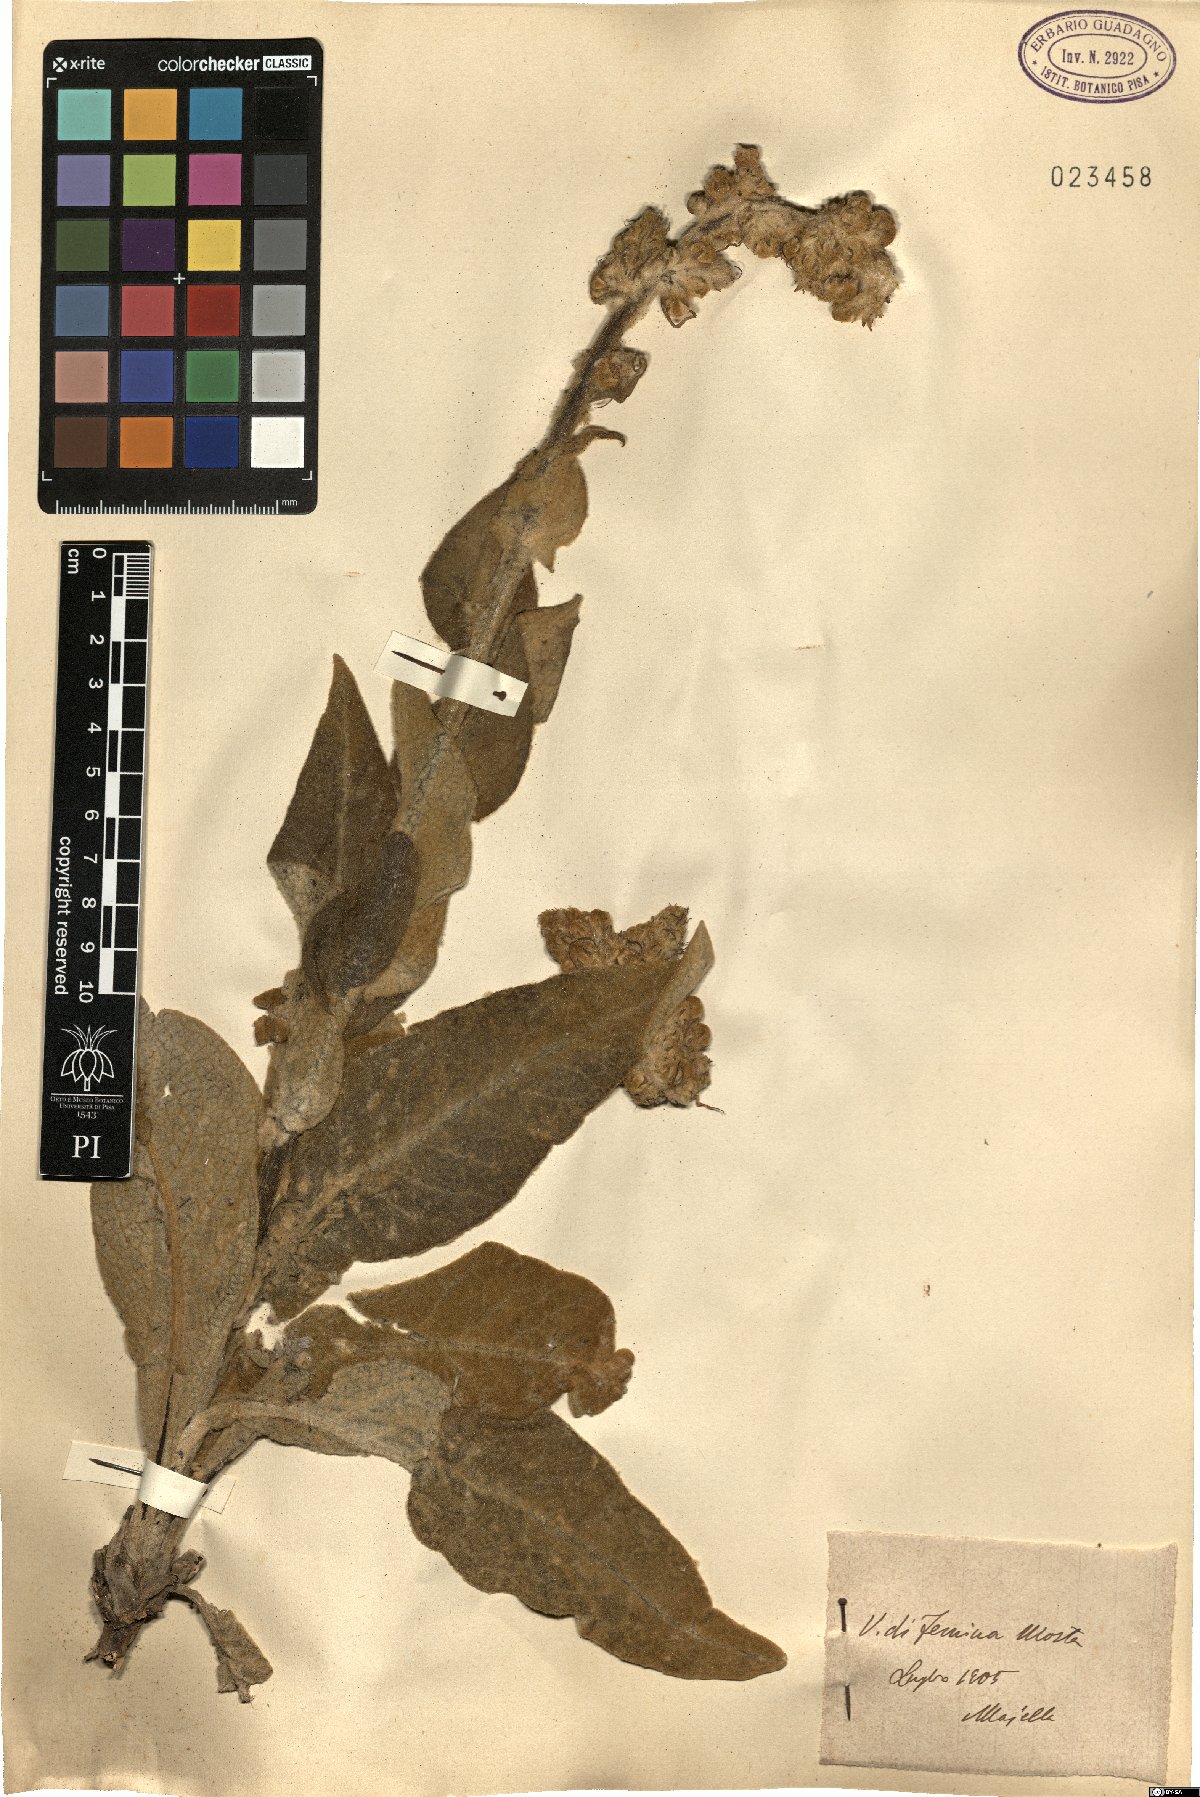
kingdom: Plantae
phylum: Tracheophyta
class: Magnoliopsida
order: Lamiales
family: Scrophulariaceae
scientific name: Scrophulariaceae
